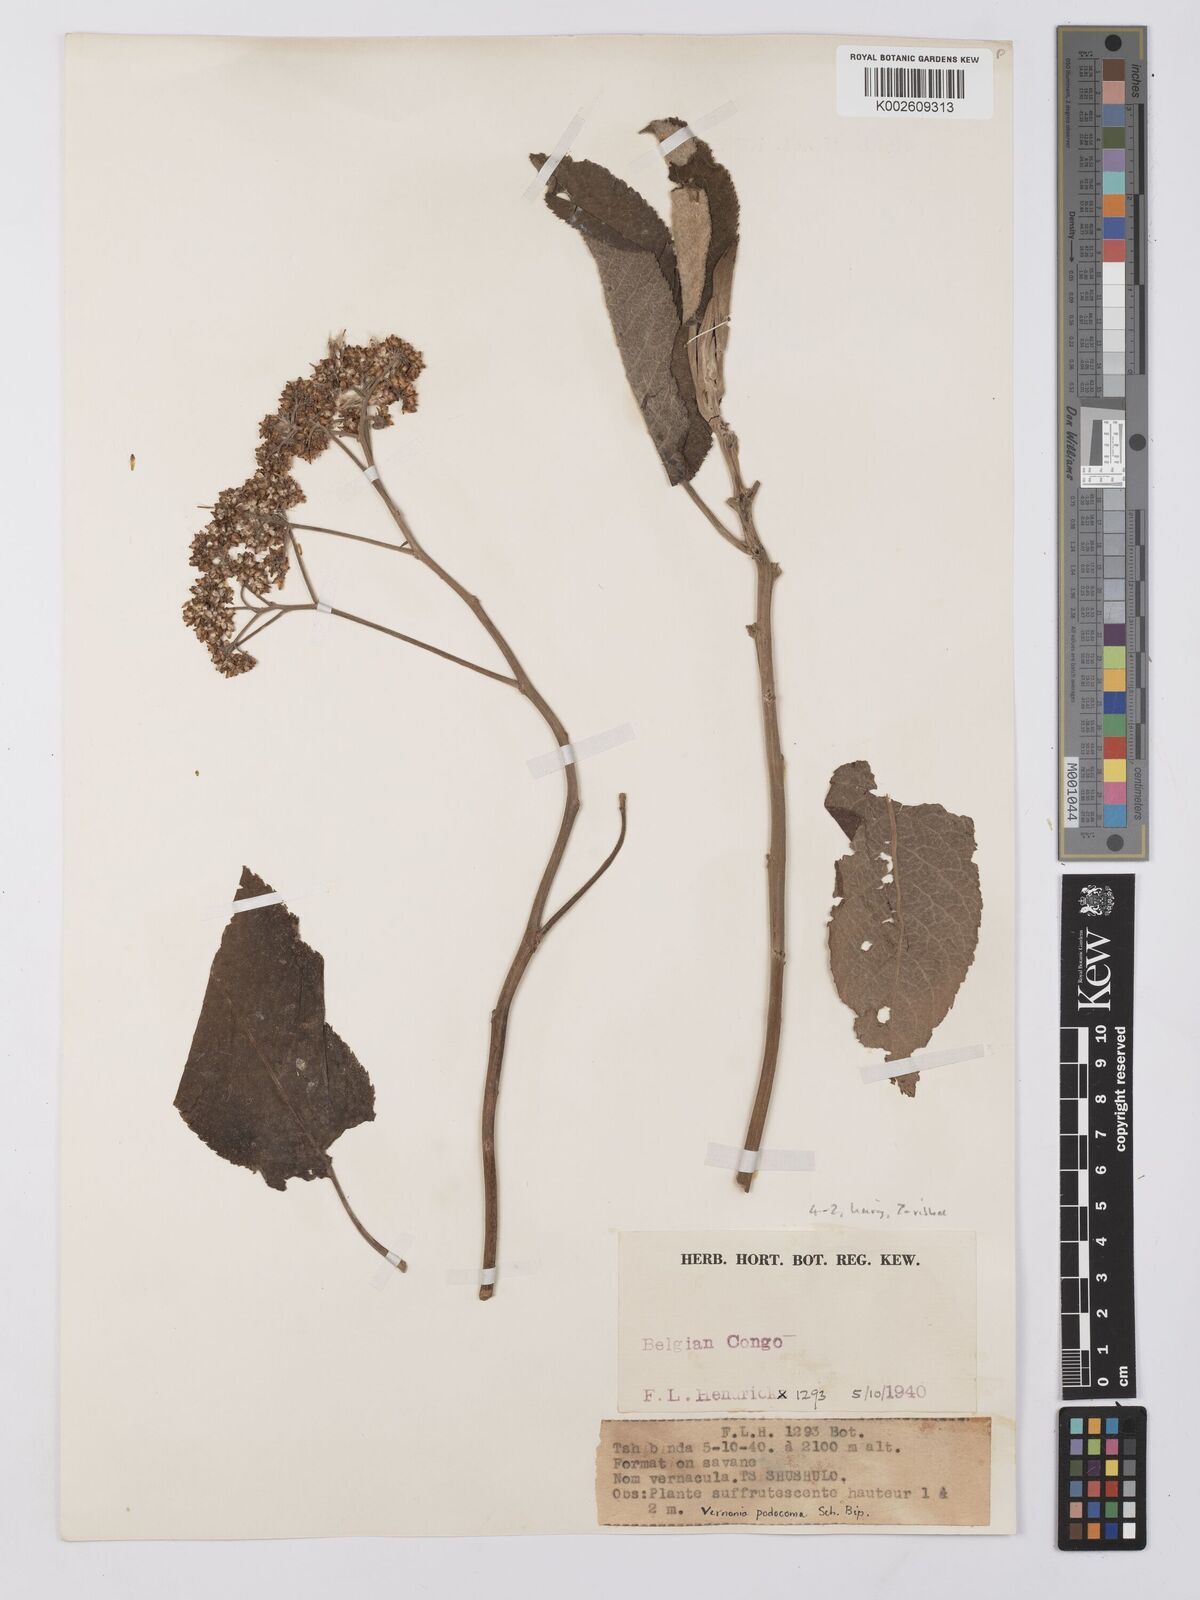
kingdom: Plantae
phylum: Tracheophyta
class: Magnoliopsida
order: Asterales
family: Asteraceae
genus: Gymnanthemum
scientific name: Gymnanthemum myrianthum
